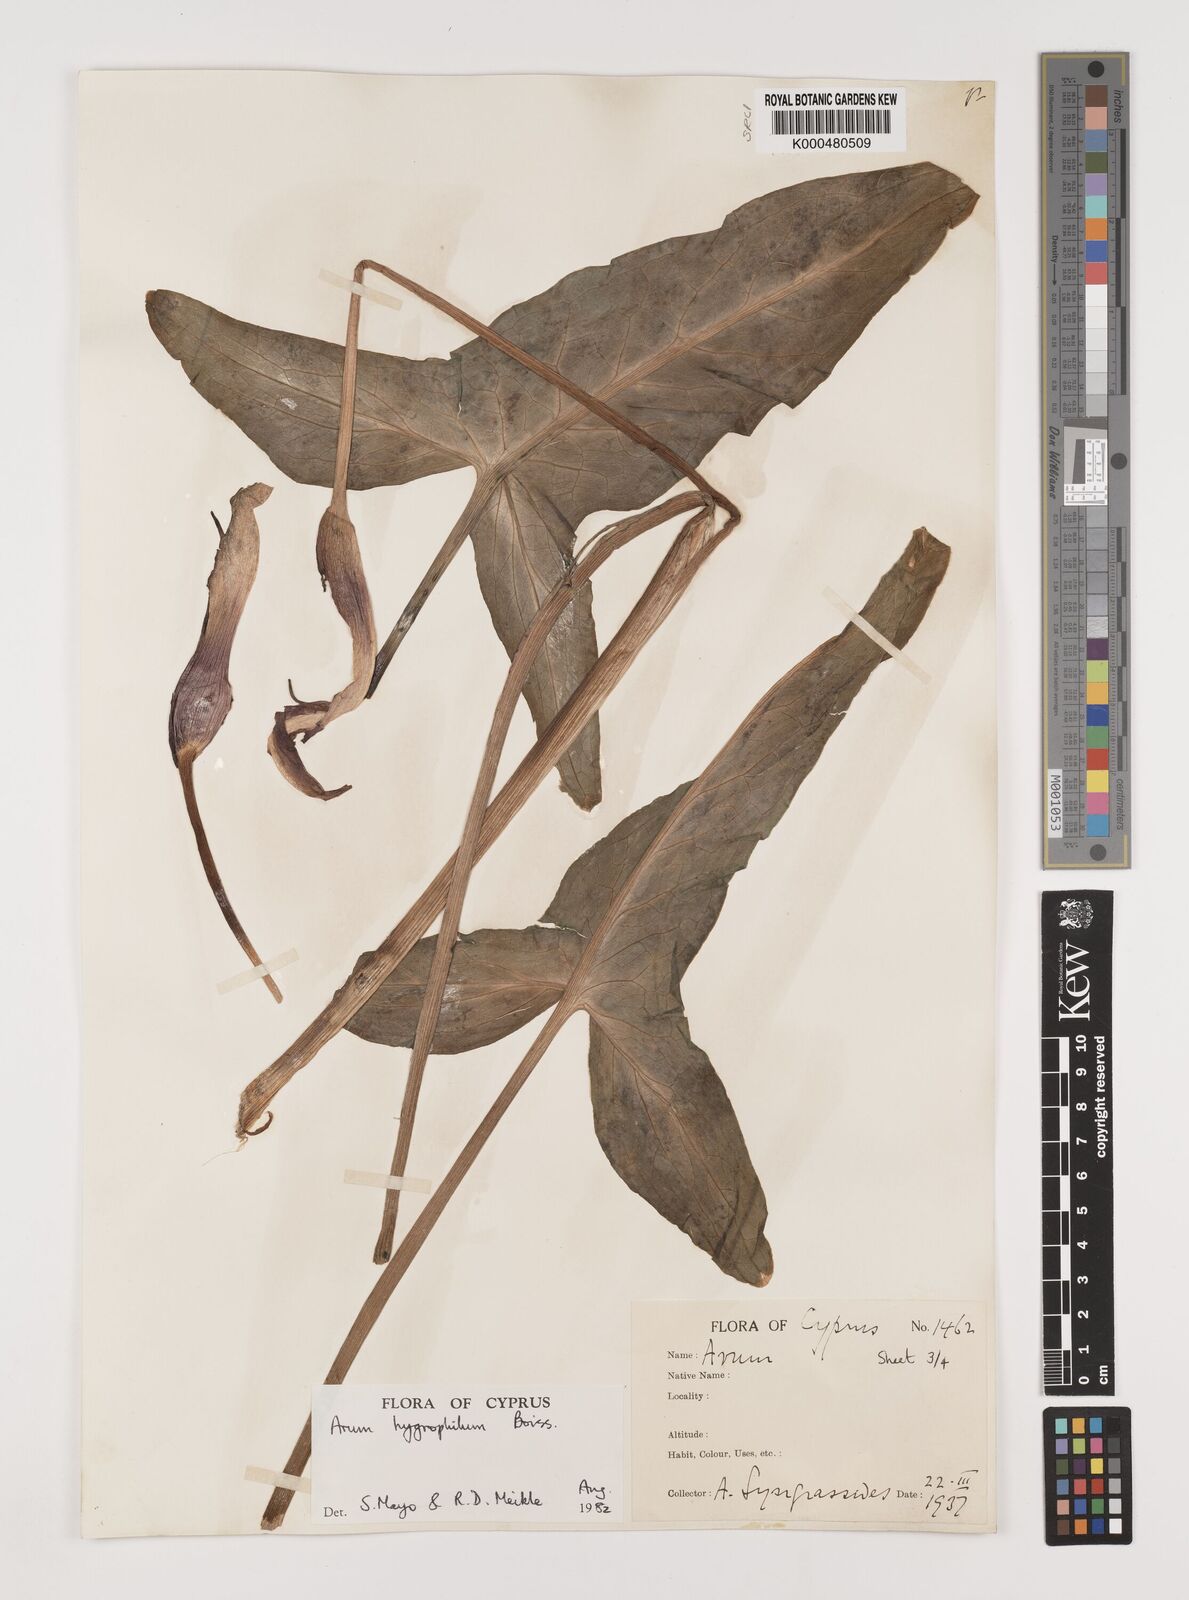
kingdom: Plantae
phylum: Tracheophyta
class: Liliopsida
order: Alismatales
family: Araceae
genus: Arum
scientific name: Arum hygrophilum
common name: Water arum
